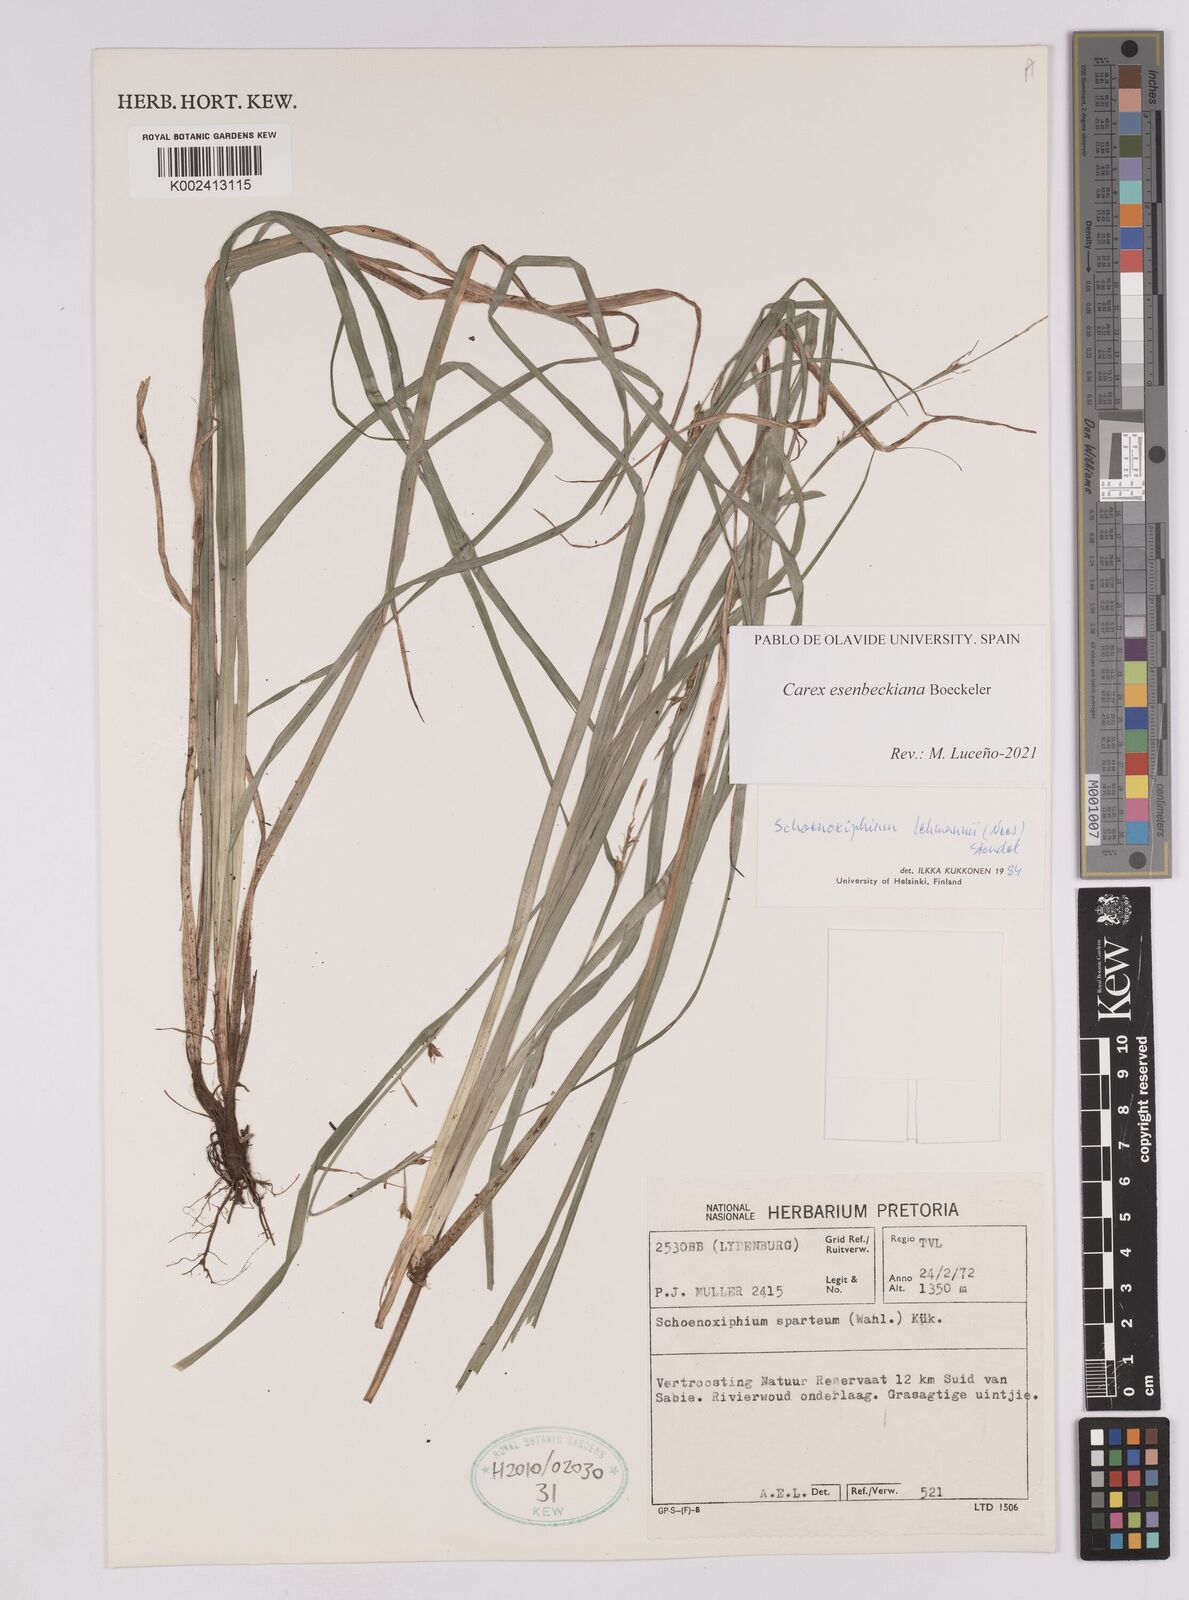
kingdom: Plantae
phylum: Tracheophyta
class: Liliopsida
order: Poales
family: Cyperaceae
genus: Carex
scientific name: Carex kukkoneniana
